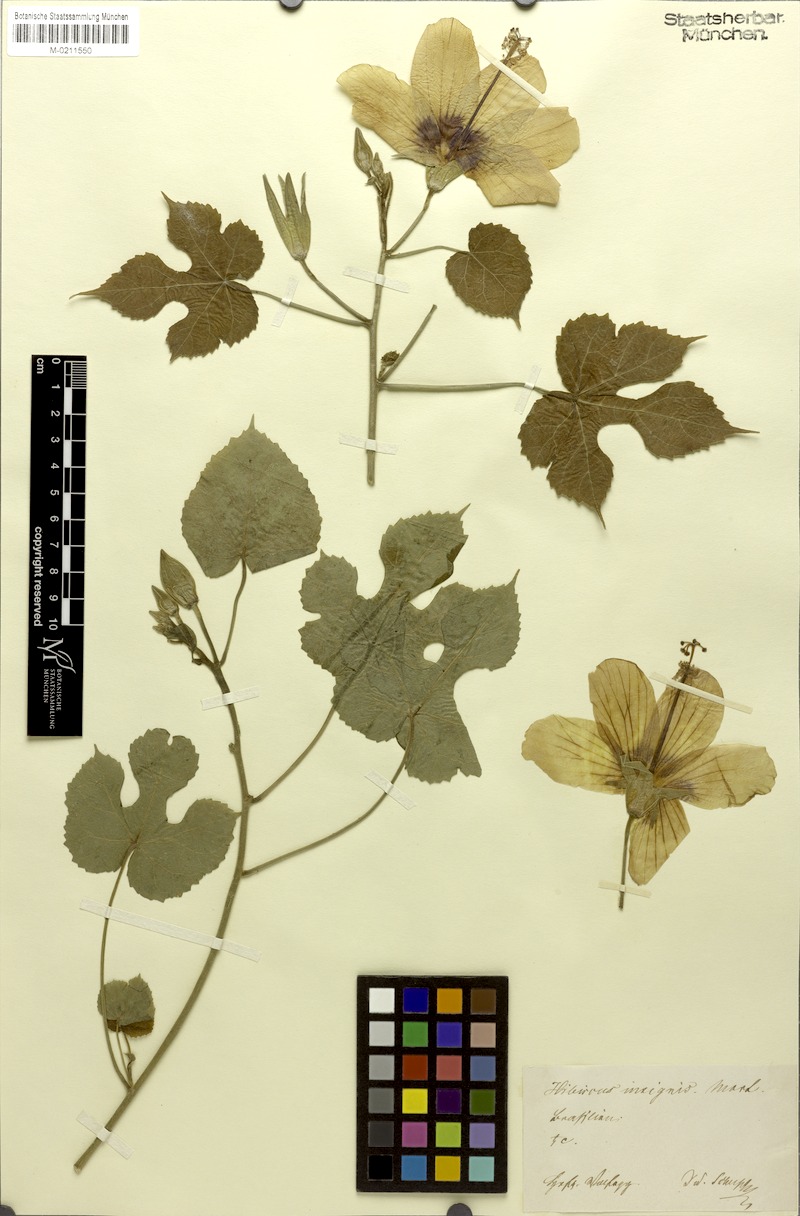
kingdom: Plantae
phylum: Tracheophyta
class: Magnoliopsida
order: Malvales
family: Malvaceae
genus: Hibiscus
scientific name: Hibiscus
